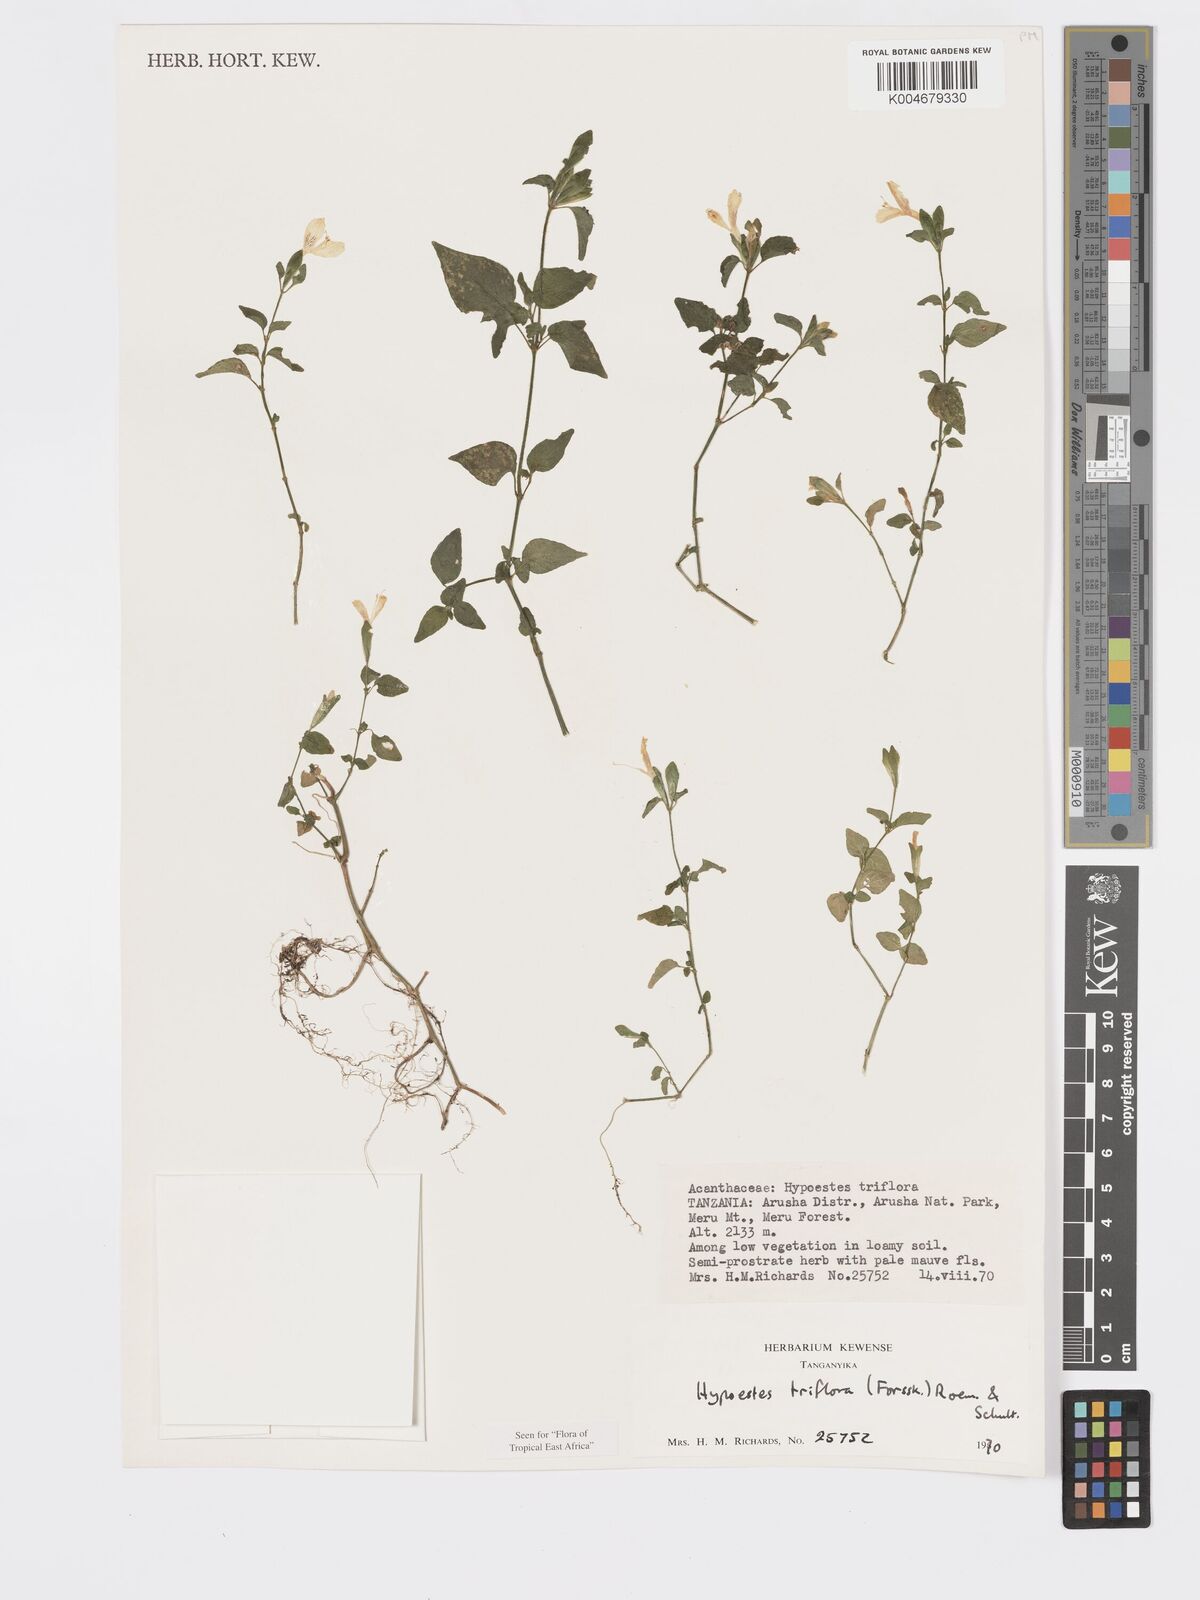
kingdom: Plantae
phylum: Tracheophyta
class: Magnoliopsida
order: Lamiales
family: Acanthaceae
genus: Hypoestes
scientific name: Hypoestes triflora
